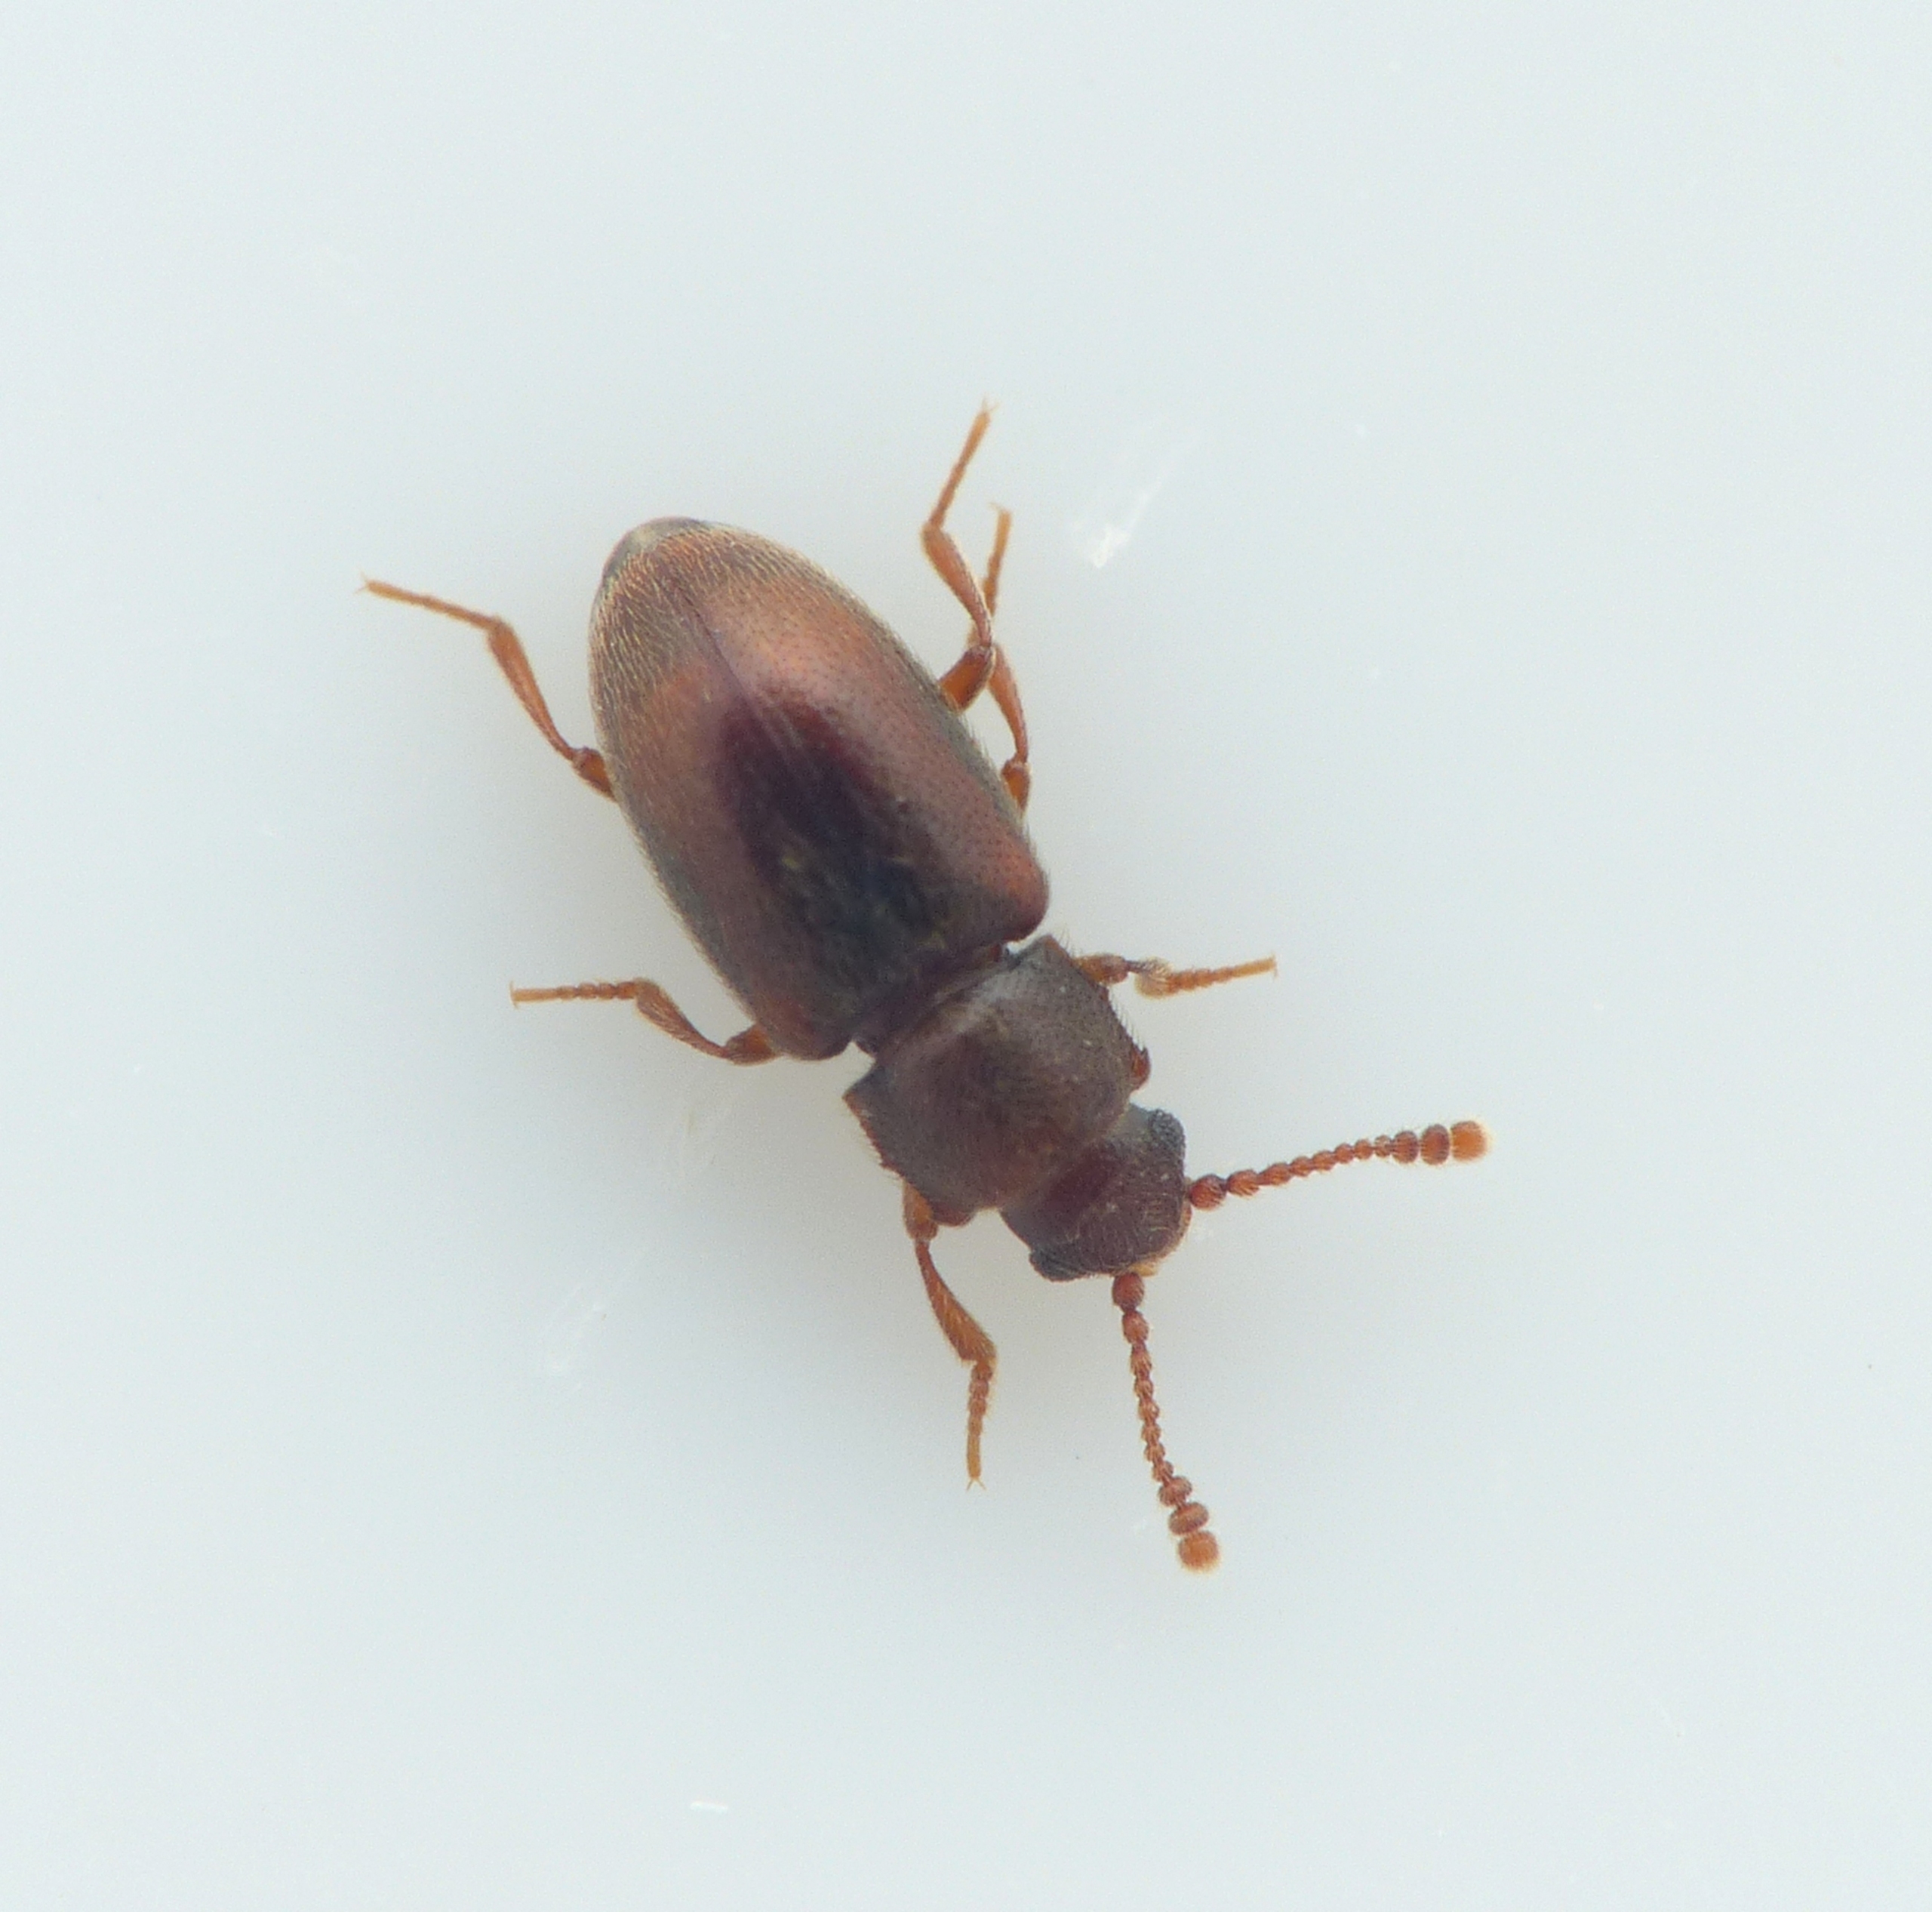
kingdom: Animalia
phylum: Arthropoda
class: Insecta
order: Coleoptera
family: Cryptophagidae
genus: Cryptophagus
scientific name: Cryptophagus distinguendus
